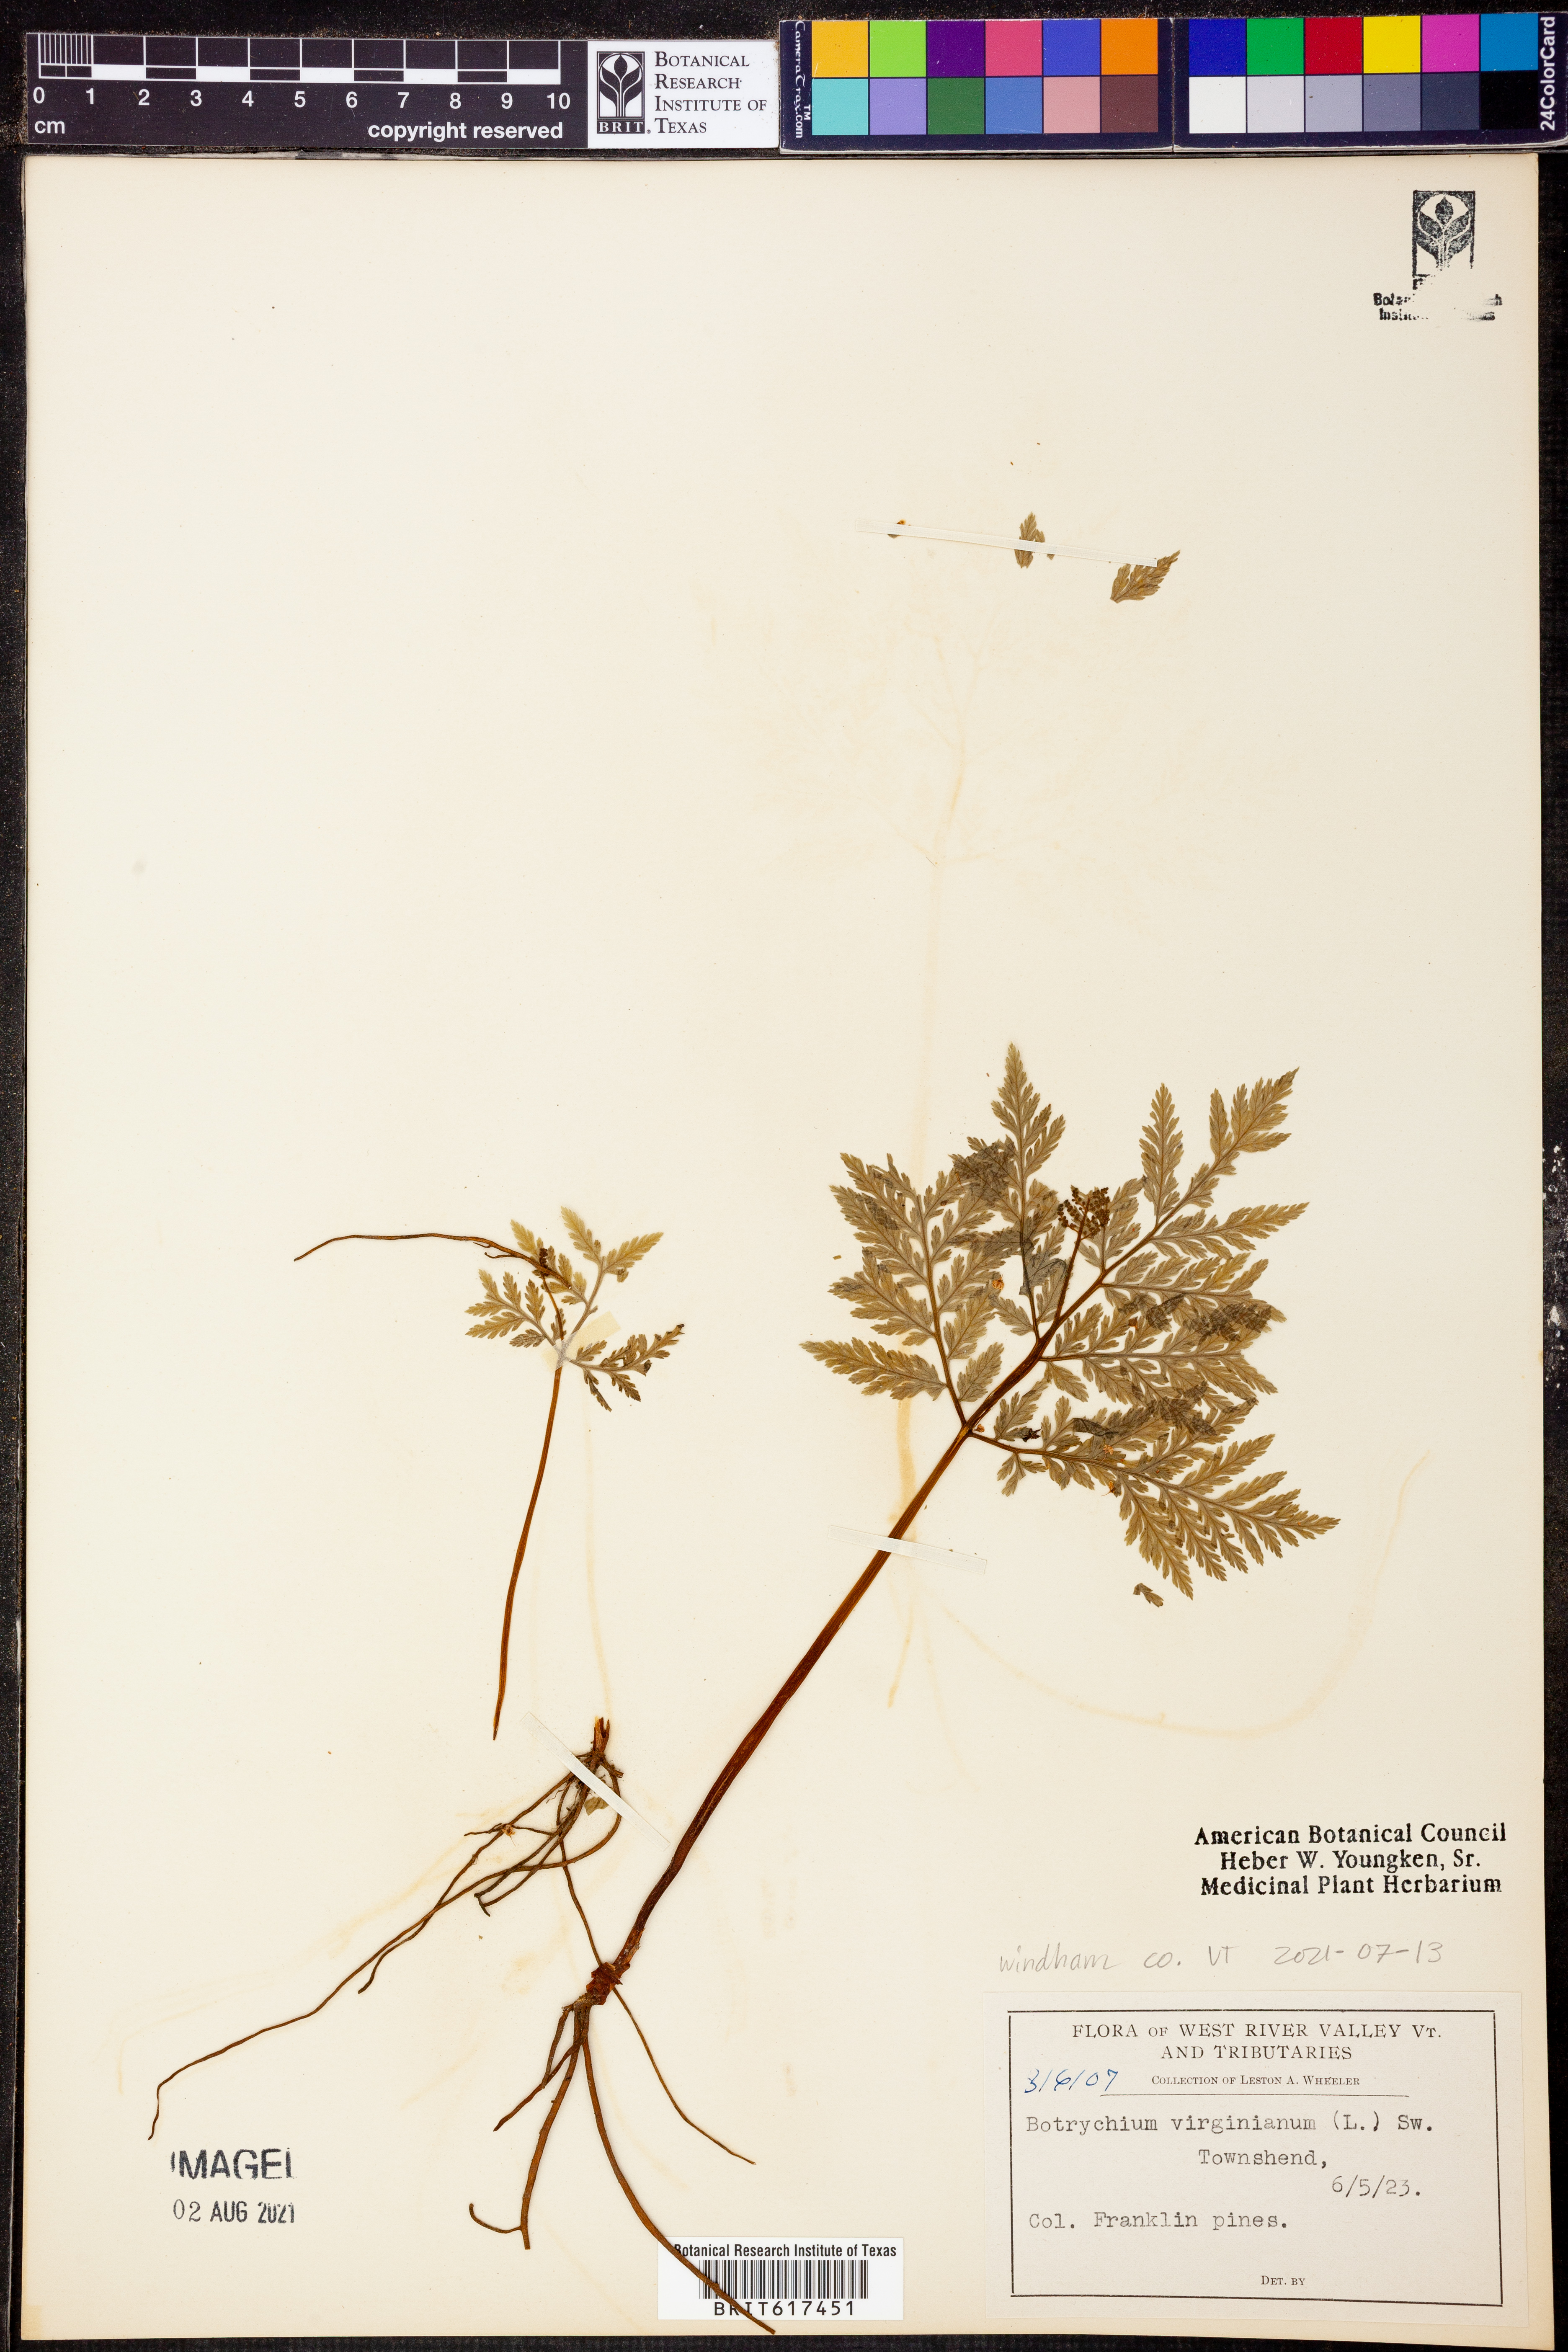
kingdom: Plantae
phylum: Tracheophyta
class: Polypodiopsida
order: Ophioglossales
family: Ophioglossaceae
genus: Botrypus
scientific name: Botrypus virginianus
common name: Common grapefern
